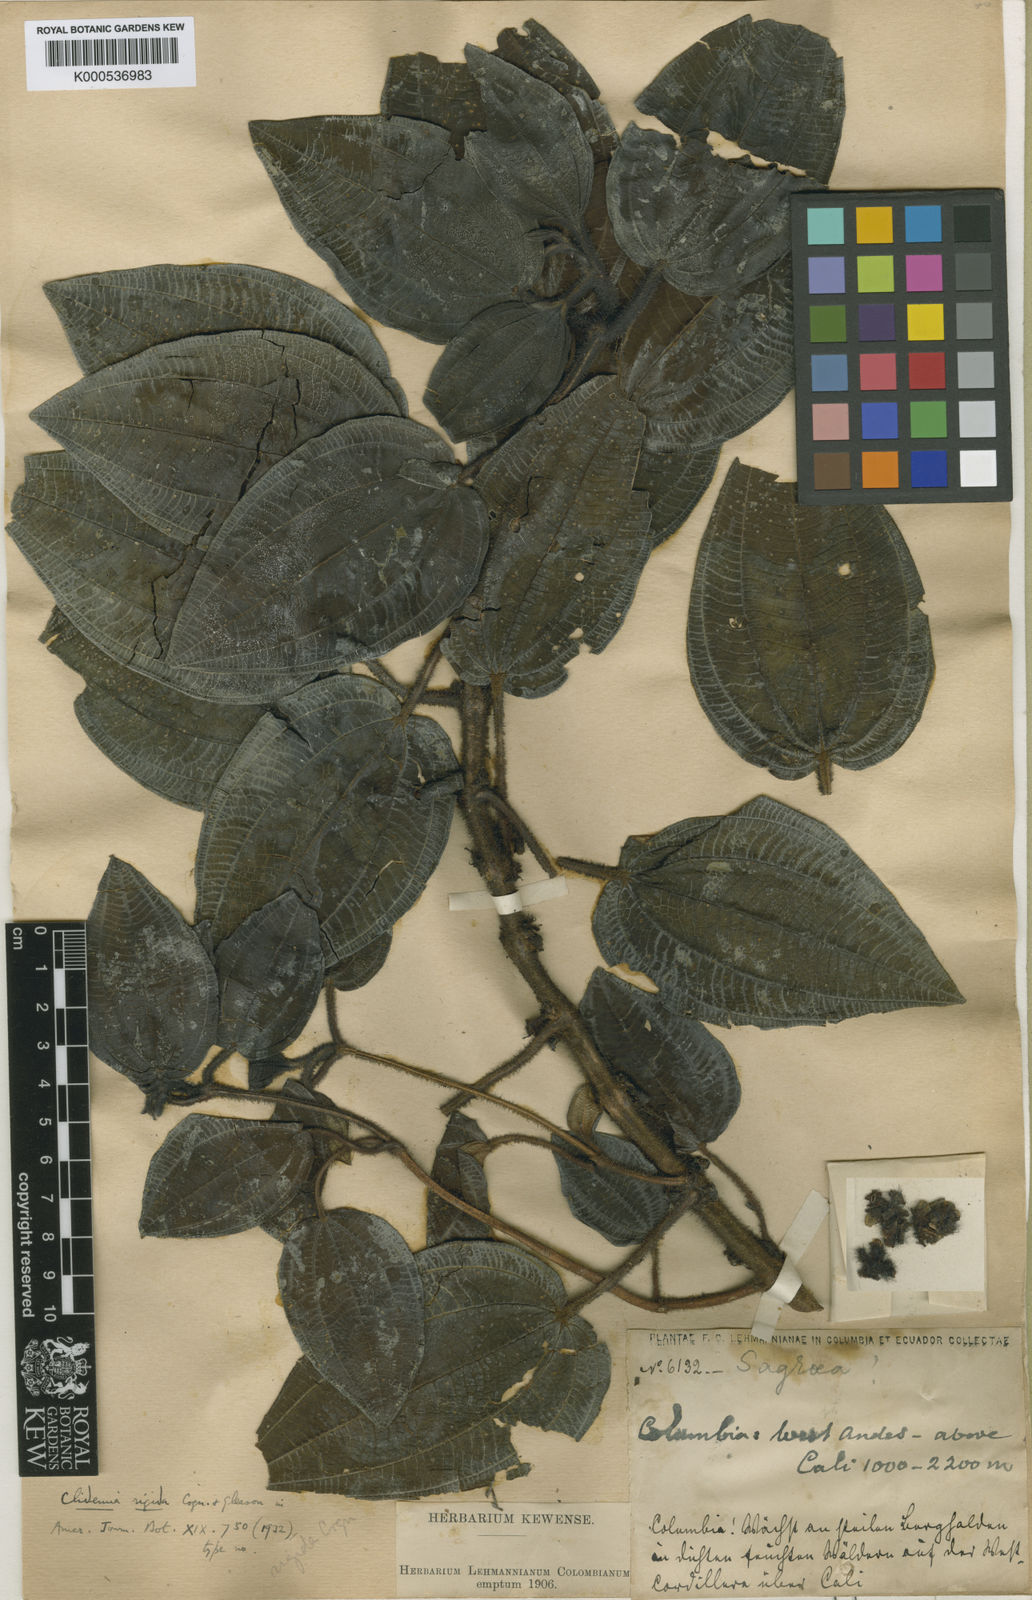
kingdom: Plantae
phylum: Tracheophyta
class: Magnoliopsida
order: Myrtales
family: Melastomataceae
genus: Miconia
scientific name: Miconia barbipetiolata
